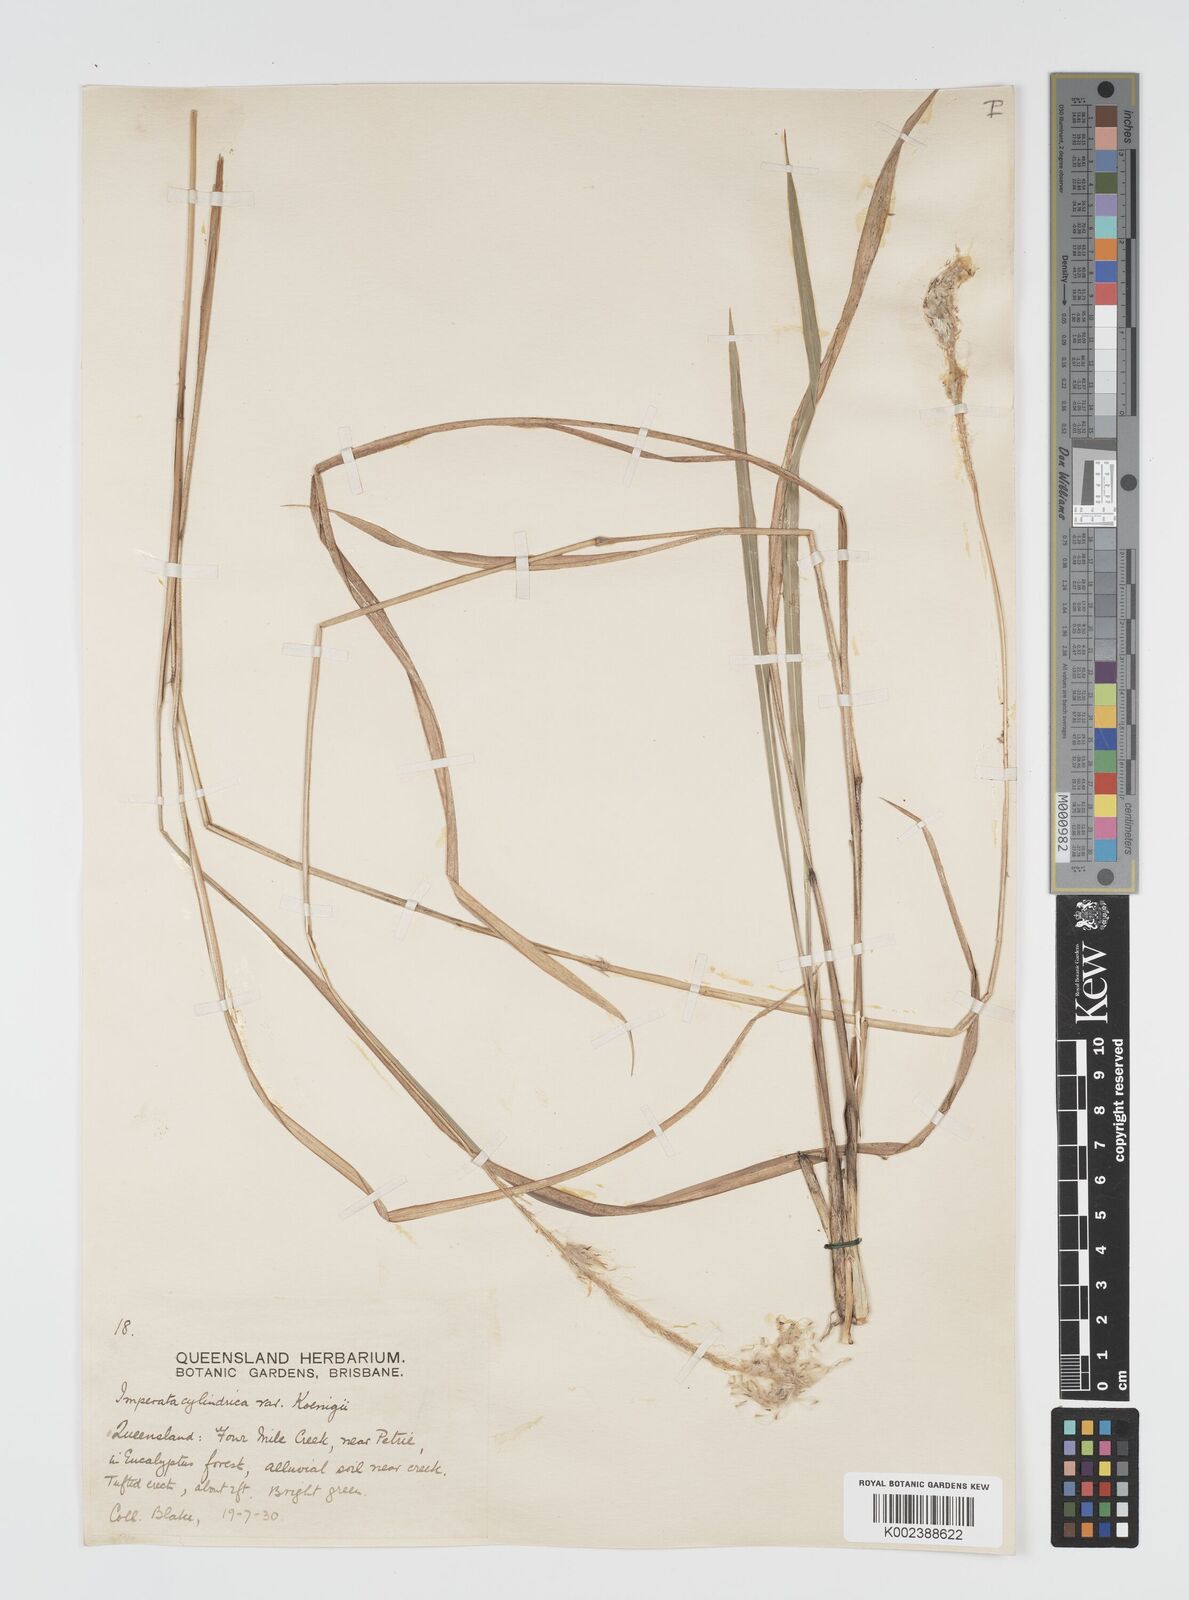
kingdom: Plantae
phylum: Tracheophyta
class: Liliopsida
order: Poales
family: Poaceae
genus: Imperata
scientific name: Imperata cylindrica
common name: Cogongrass
